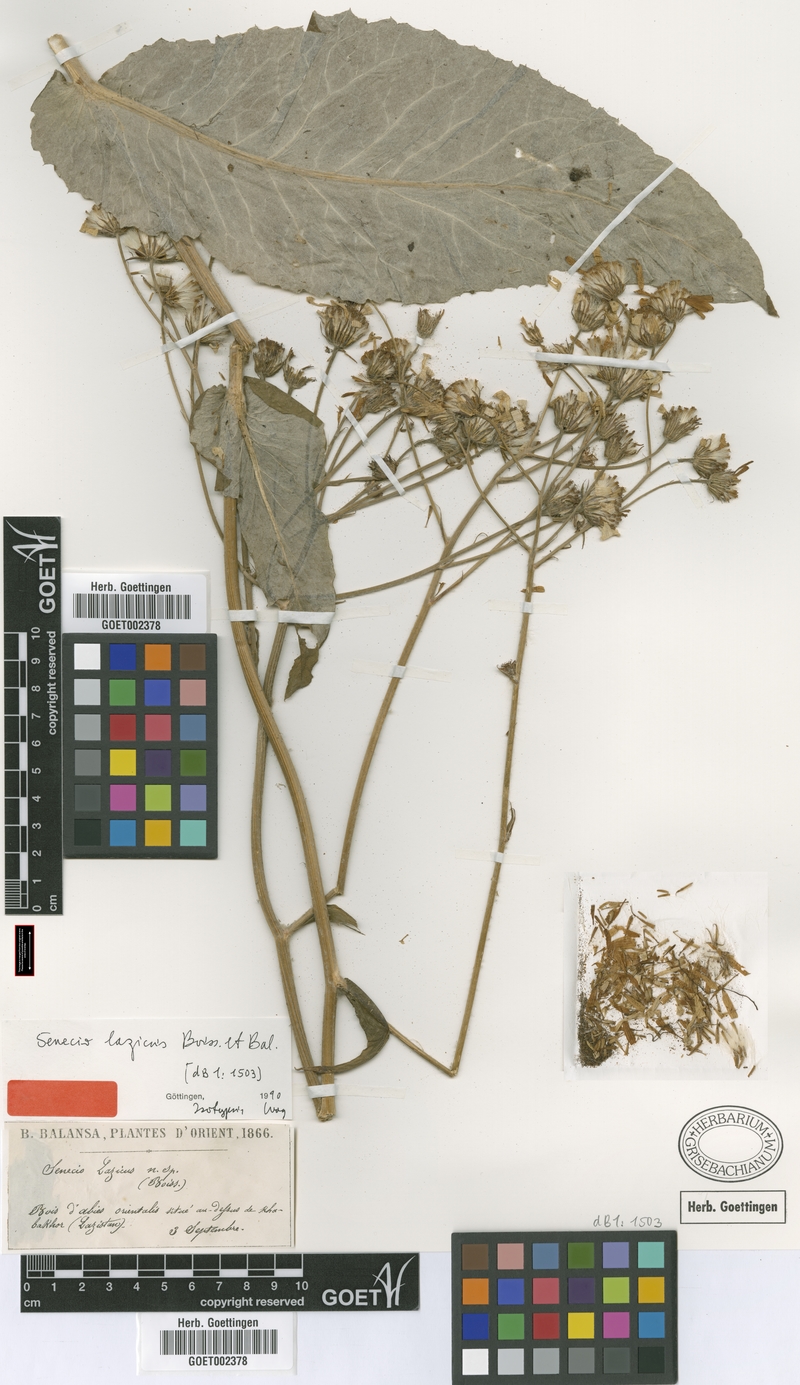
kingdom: Plantae
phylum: Tracheophyta
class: Magnoliopsida
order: Asterales
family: Asteraceae
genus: Turanecio
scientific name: Turanecio lazicus
